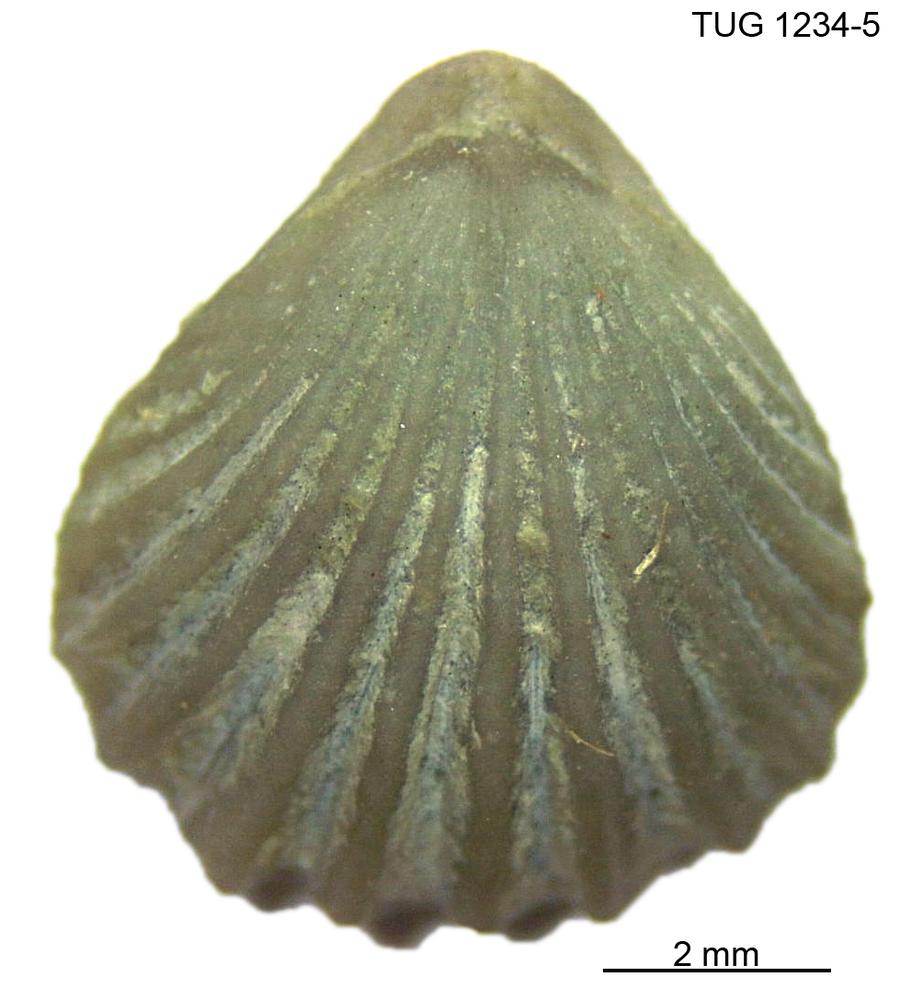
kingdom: Animalia
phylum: Brachiopoda
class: Rhynchonellata
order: Rhynchonellida
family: Trigonirhynchiidae
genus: Rostricellula
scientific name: Rostricellula nobilis
